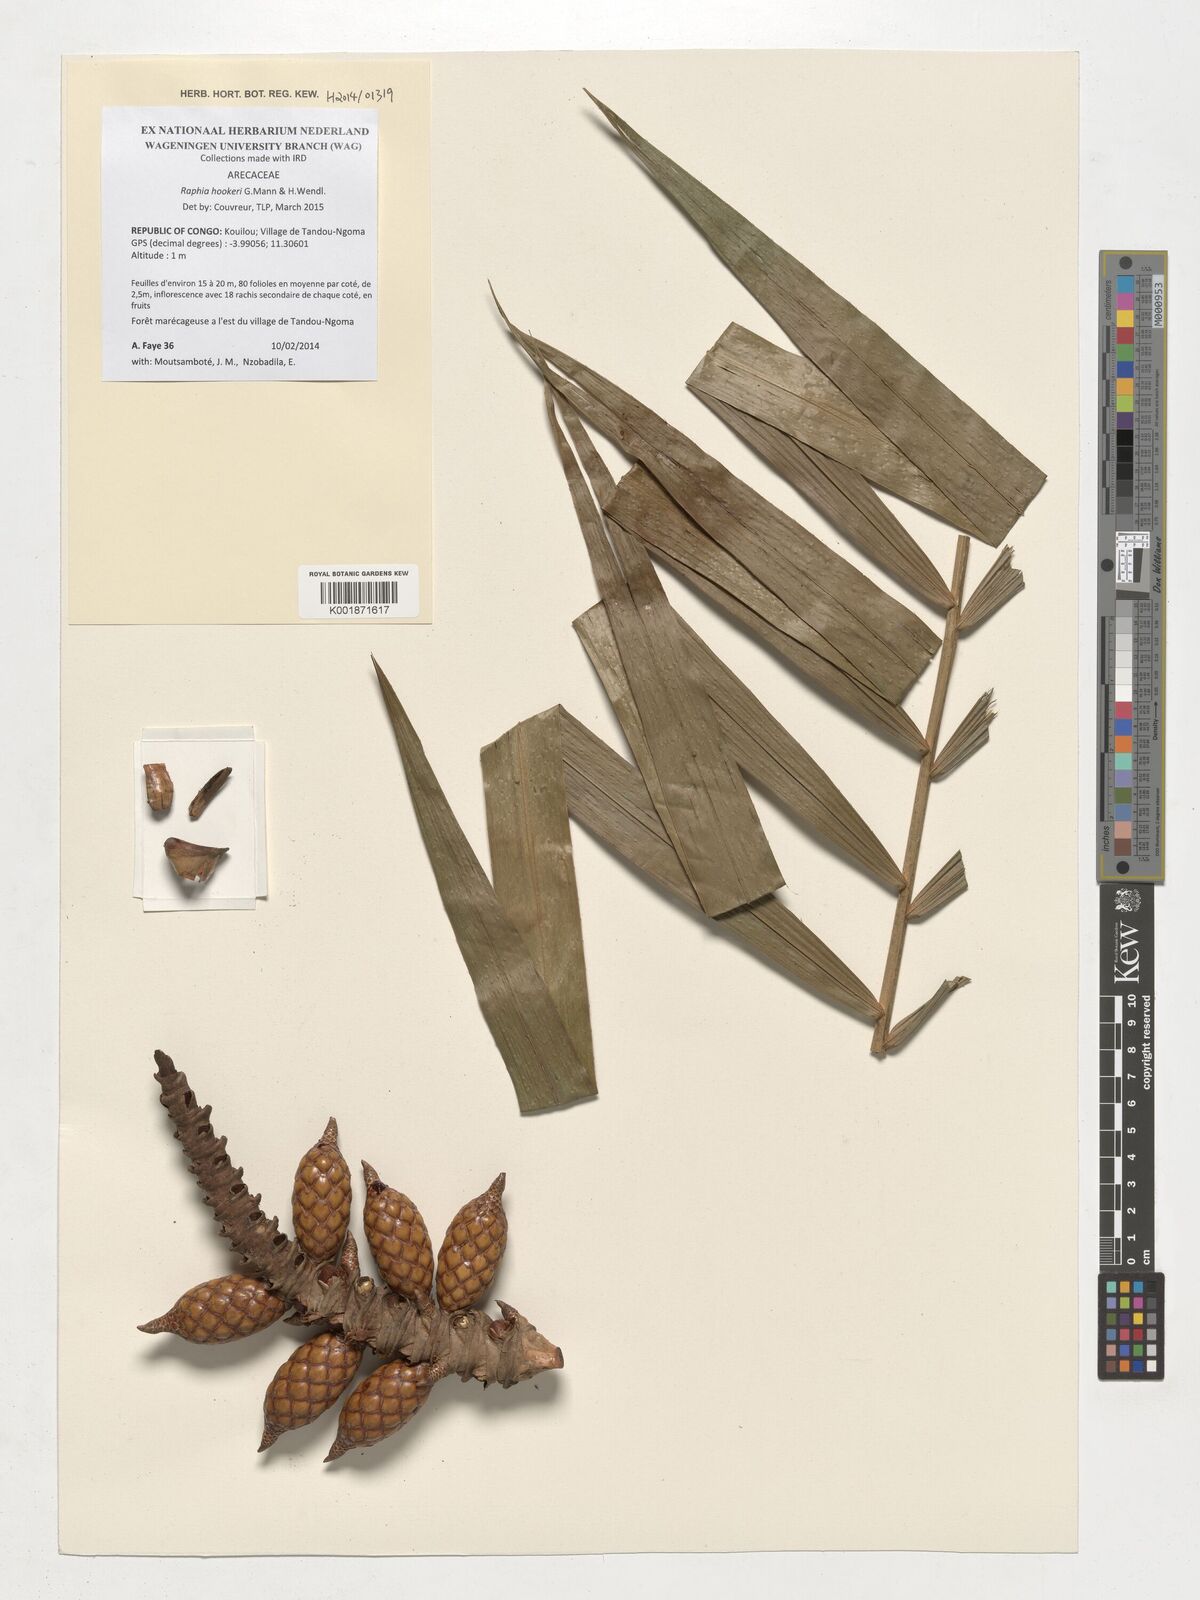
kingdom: Plantae
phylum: Tracheophyta
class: Liliopsida
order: Arecales
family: Arecaceae
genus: Raphia
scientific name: Raphia hookeri
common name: Wine palm
